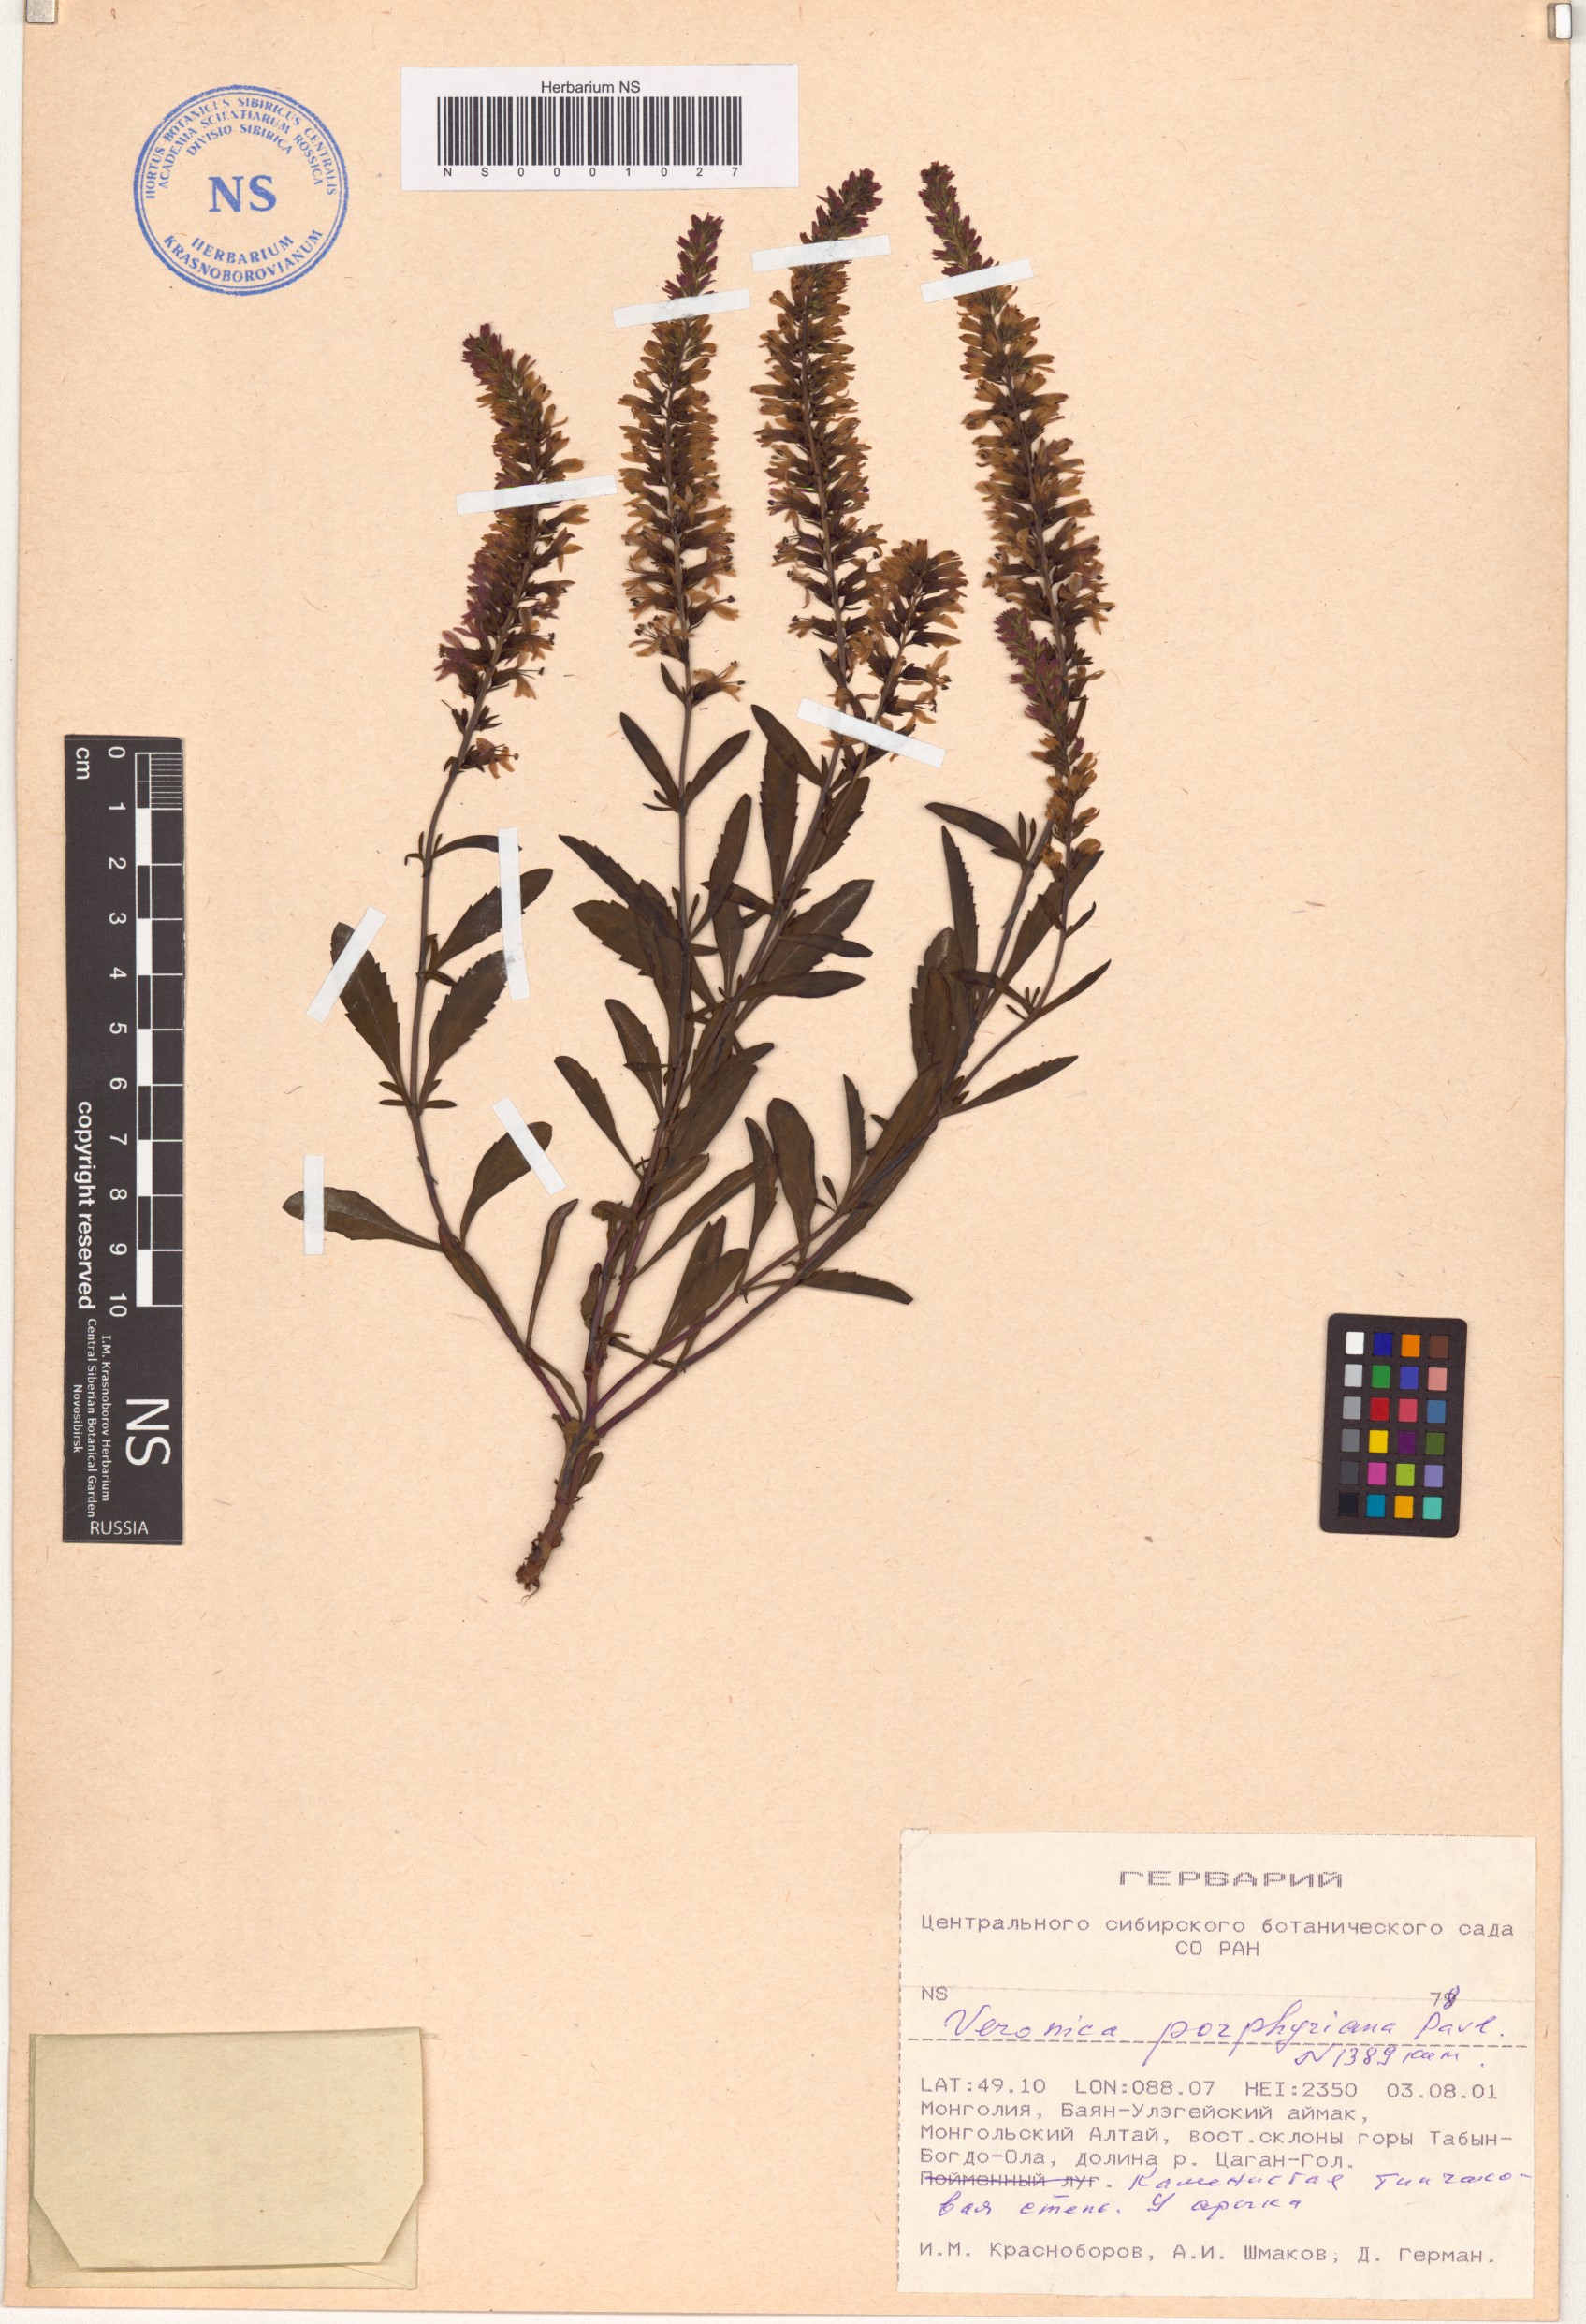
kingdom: Plantae
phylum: Tracheophyta
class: Magnoliopsida
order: Lamiales
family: Plantaginaceae
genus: Veronica
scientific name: Veronica porphyriana
